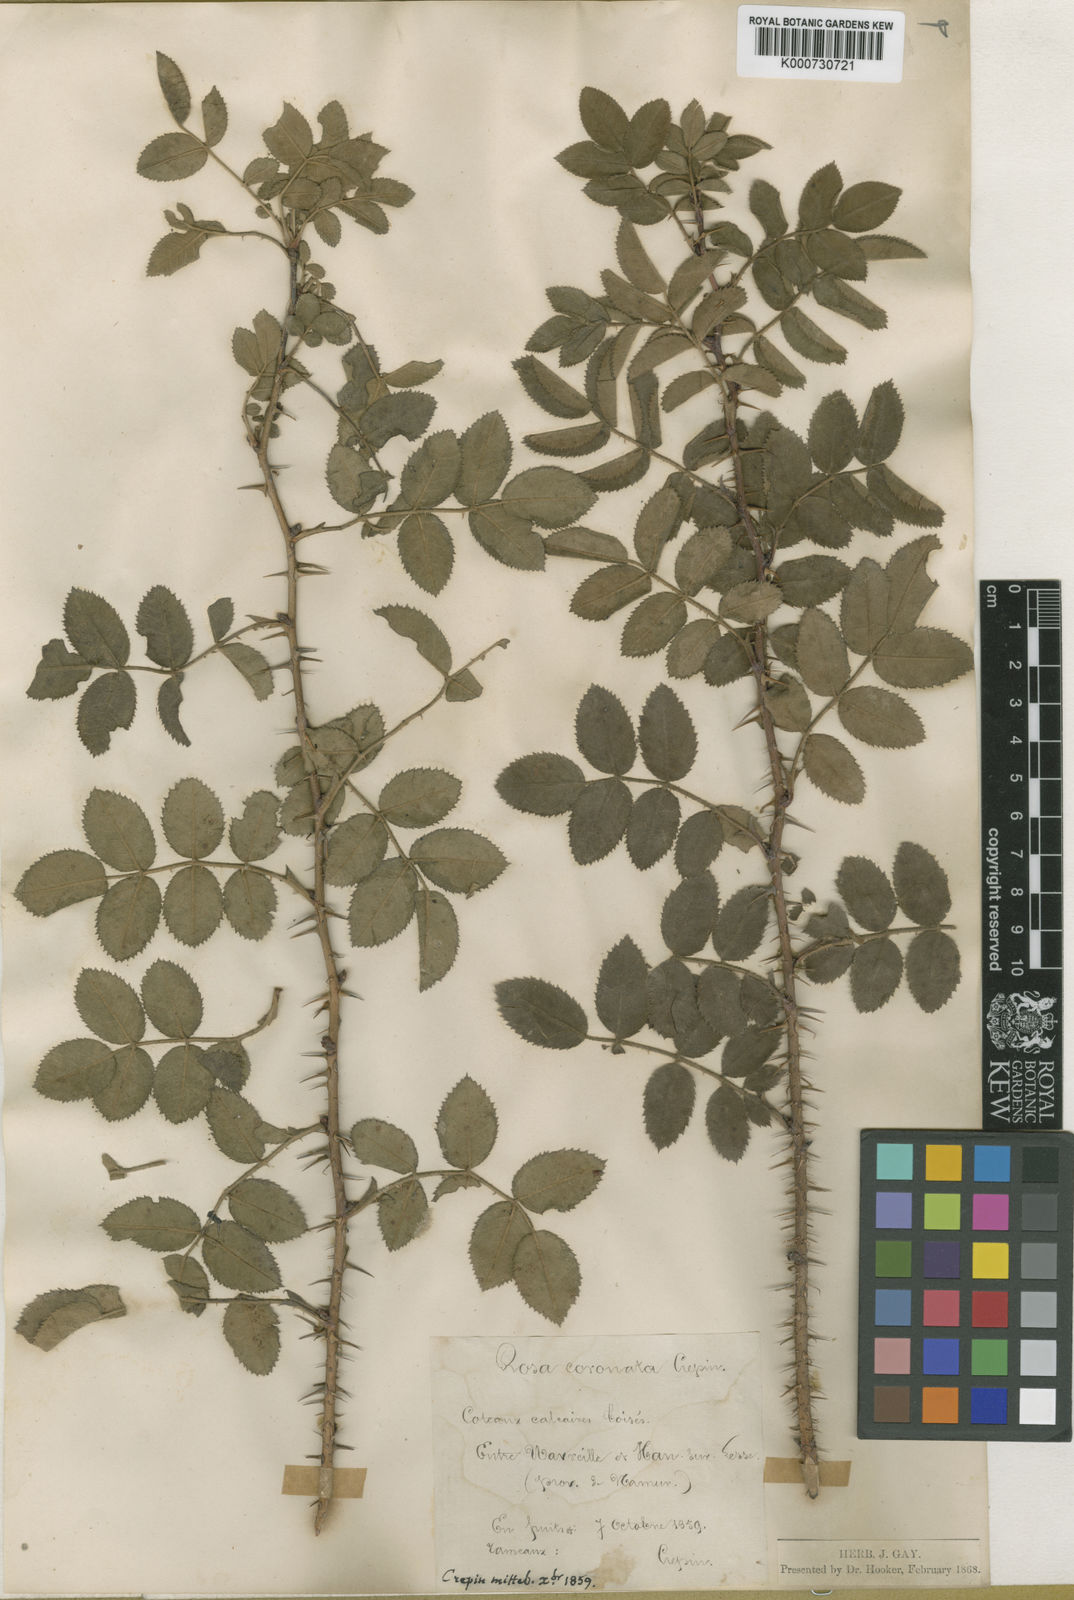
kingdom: Plantae
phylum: Tracheophyta
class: Magnoliopsida
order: Rosales
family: Rosaceae
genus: Rosa
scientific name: Rosa involuta
